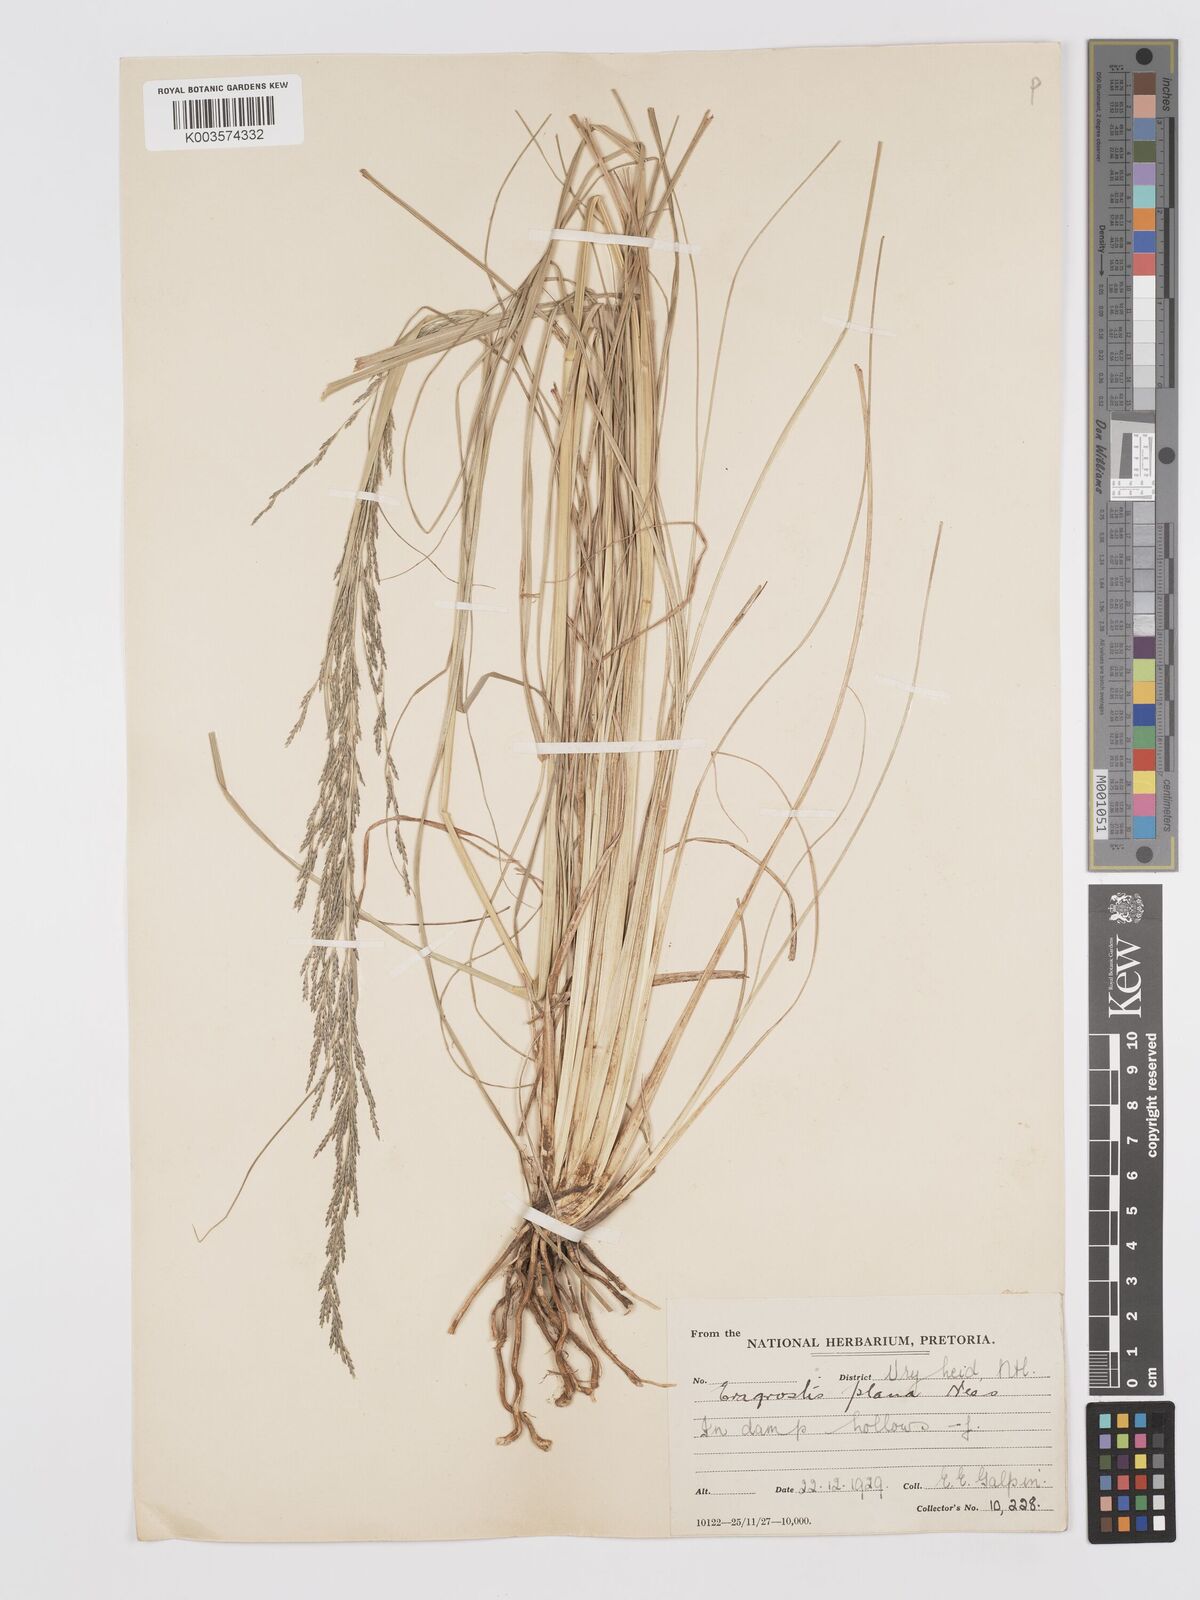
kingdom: Plantae
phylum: Tracheophyta
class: Liliopsida
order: Poales
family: Poaceae
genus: Eragrostis
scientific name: Eragrostis plana
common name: South african lovegrass
